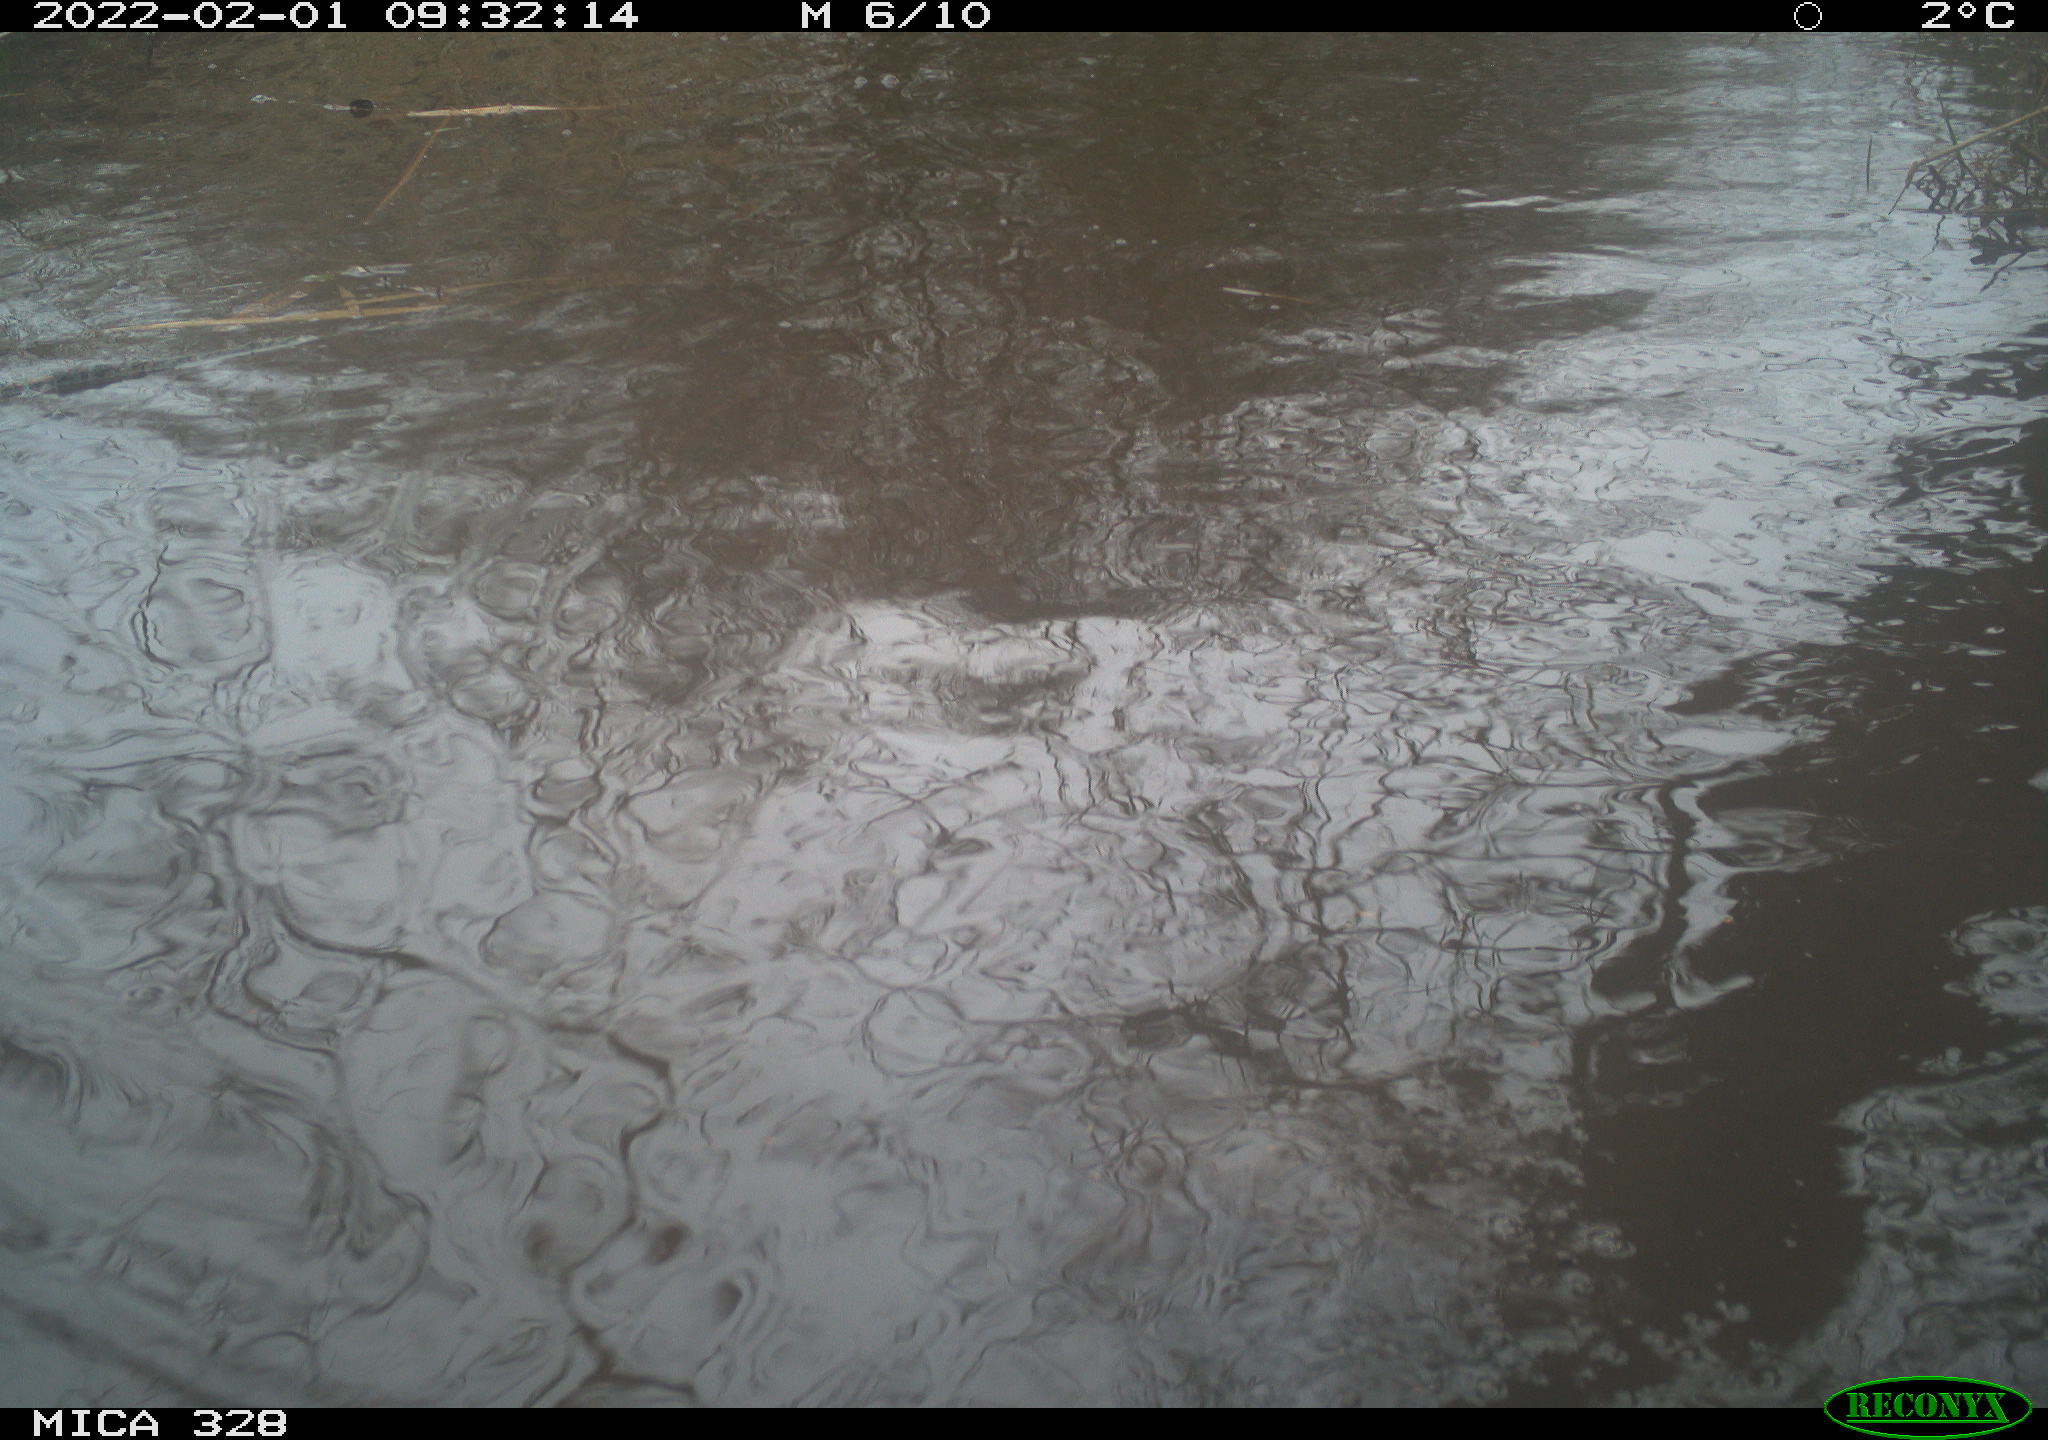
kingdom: Animalia
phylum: Chordata
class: Mammalia
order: Rodentia
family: Cricetidae
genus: Ondatra
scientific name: Ondatra zibethicus
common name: Muskrat
